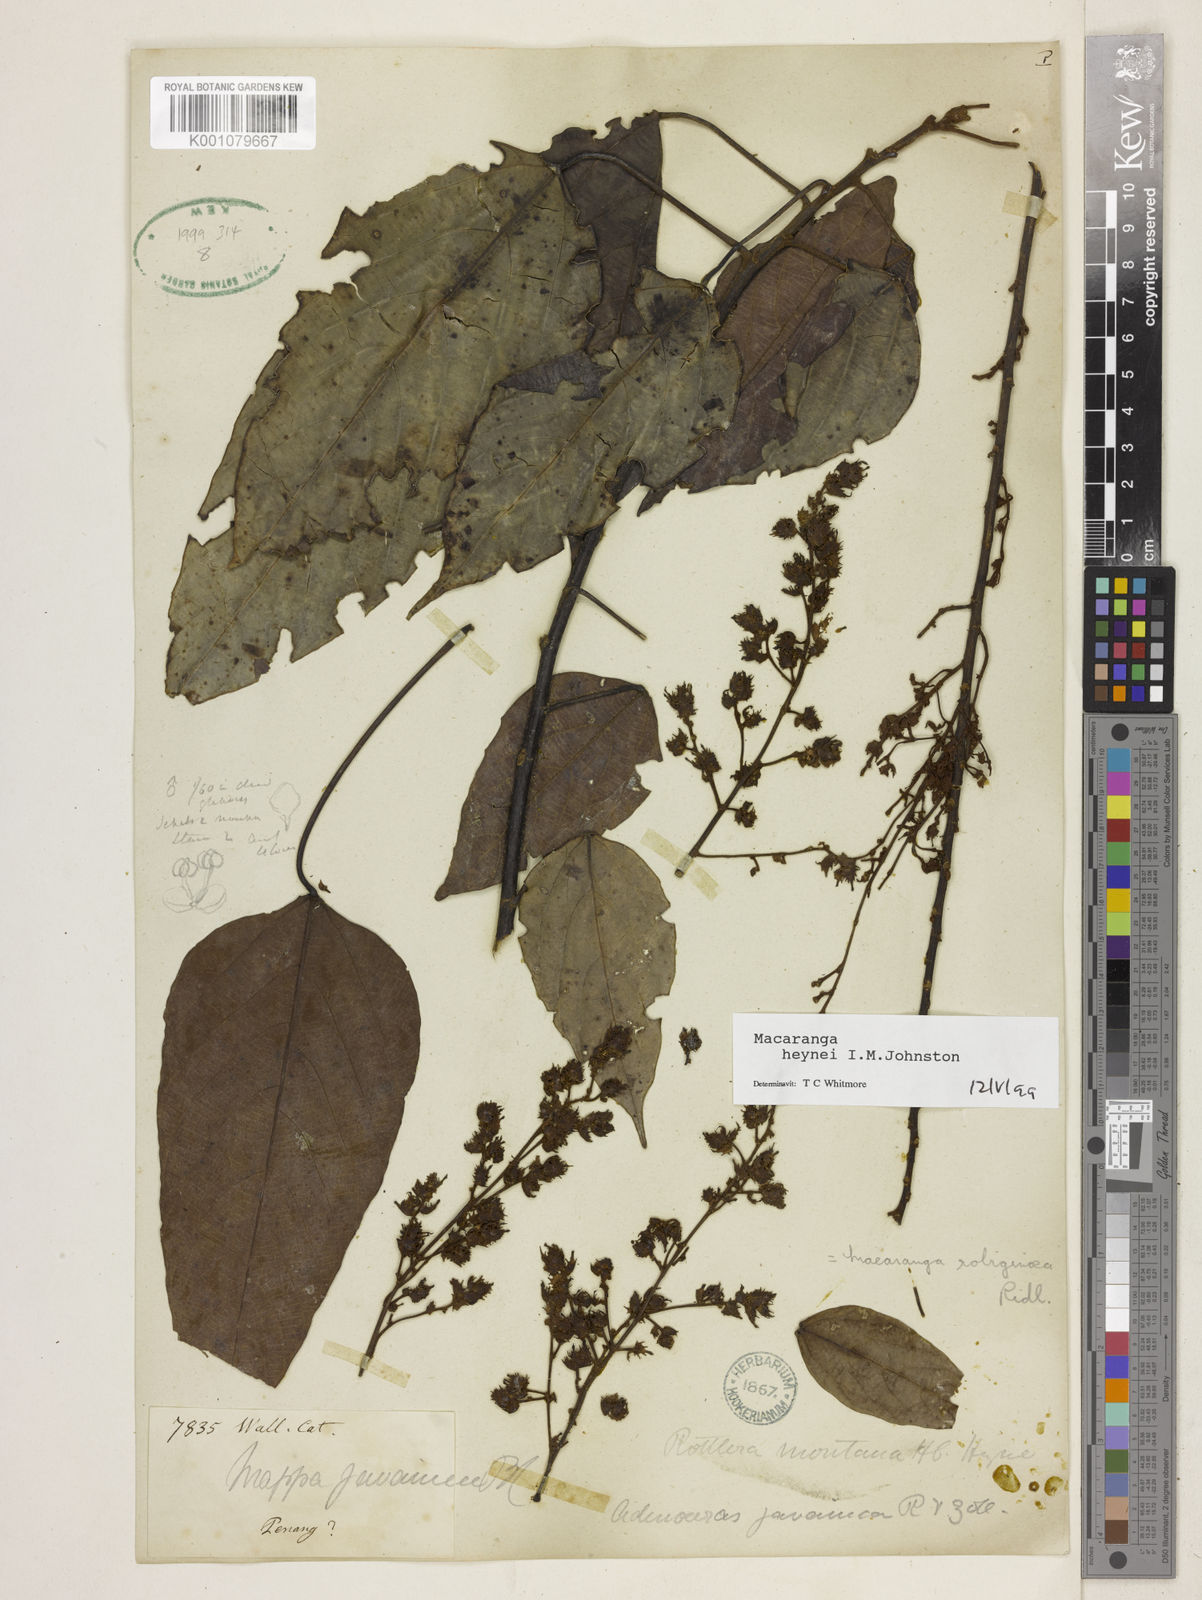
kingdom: Plantae
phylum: Tracheophyta
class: Magnoliopsida
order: Malpighiales
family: Euphorbiaceae
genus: Macaranga
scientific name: Macaranga heynei
